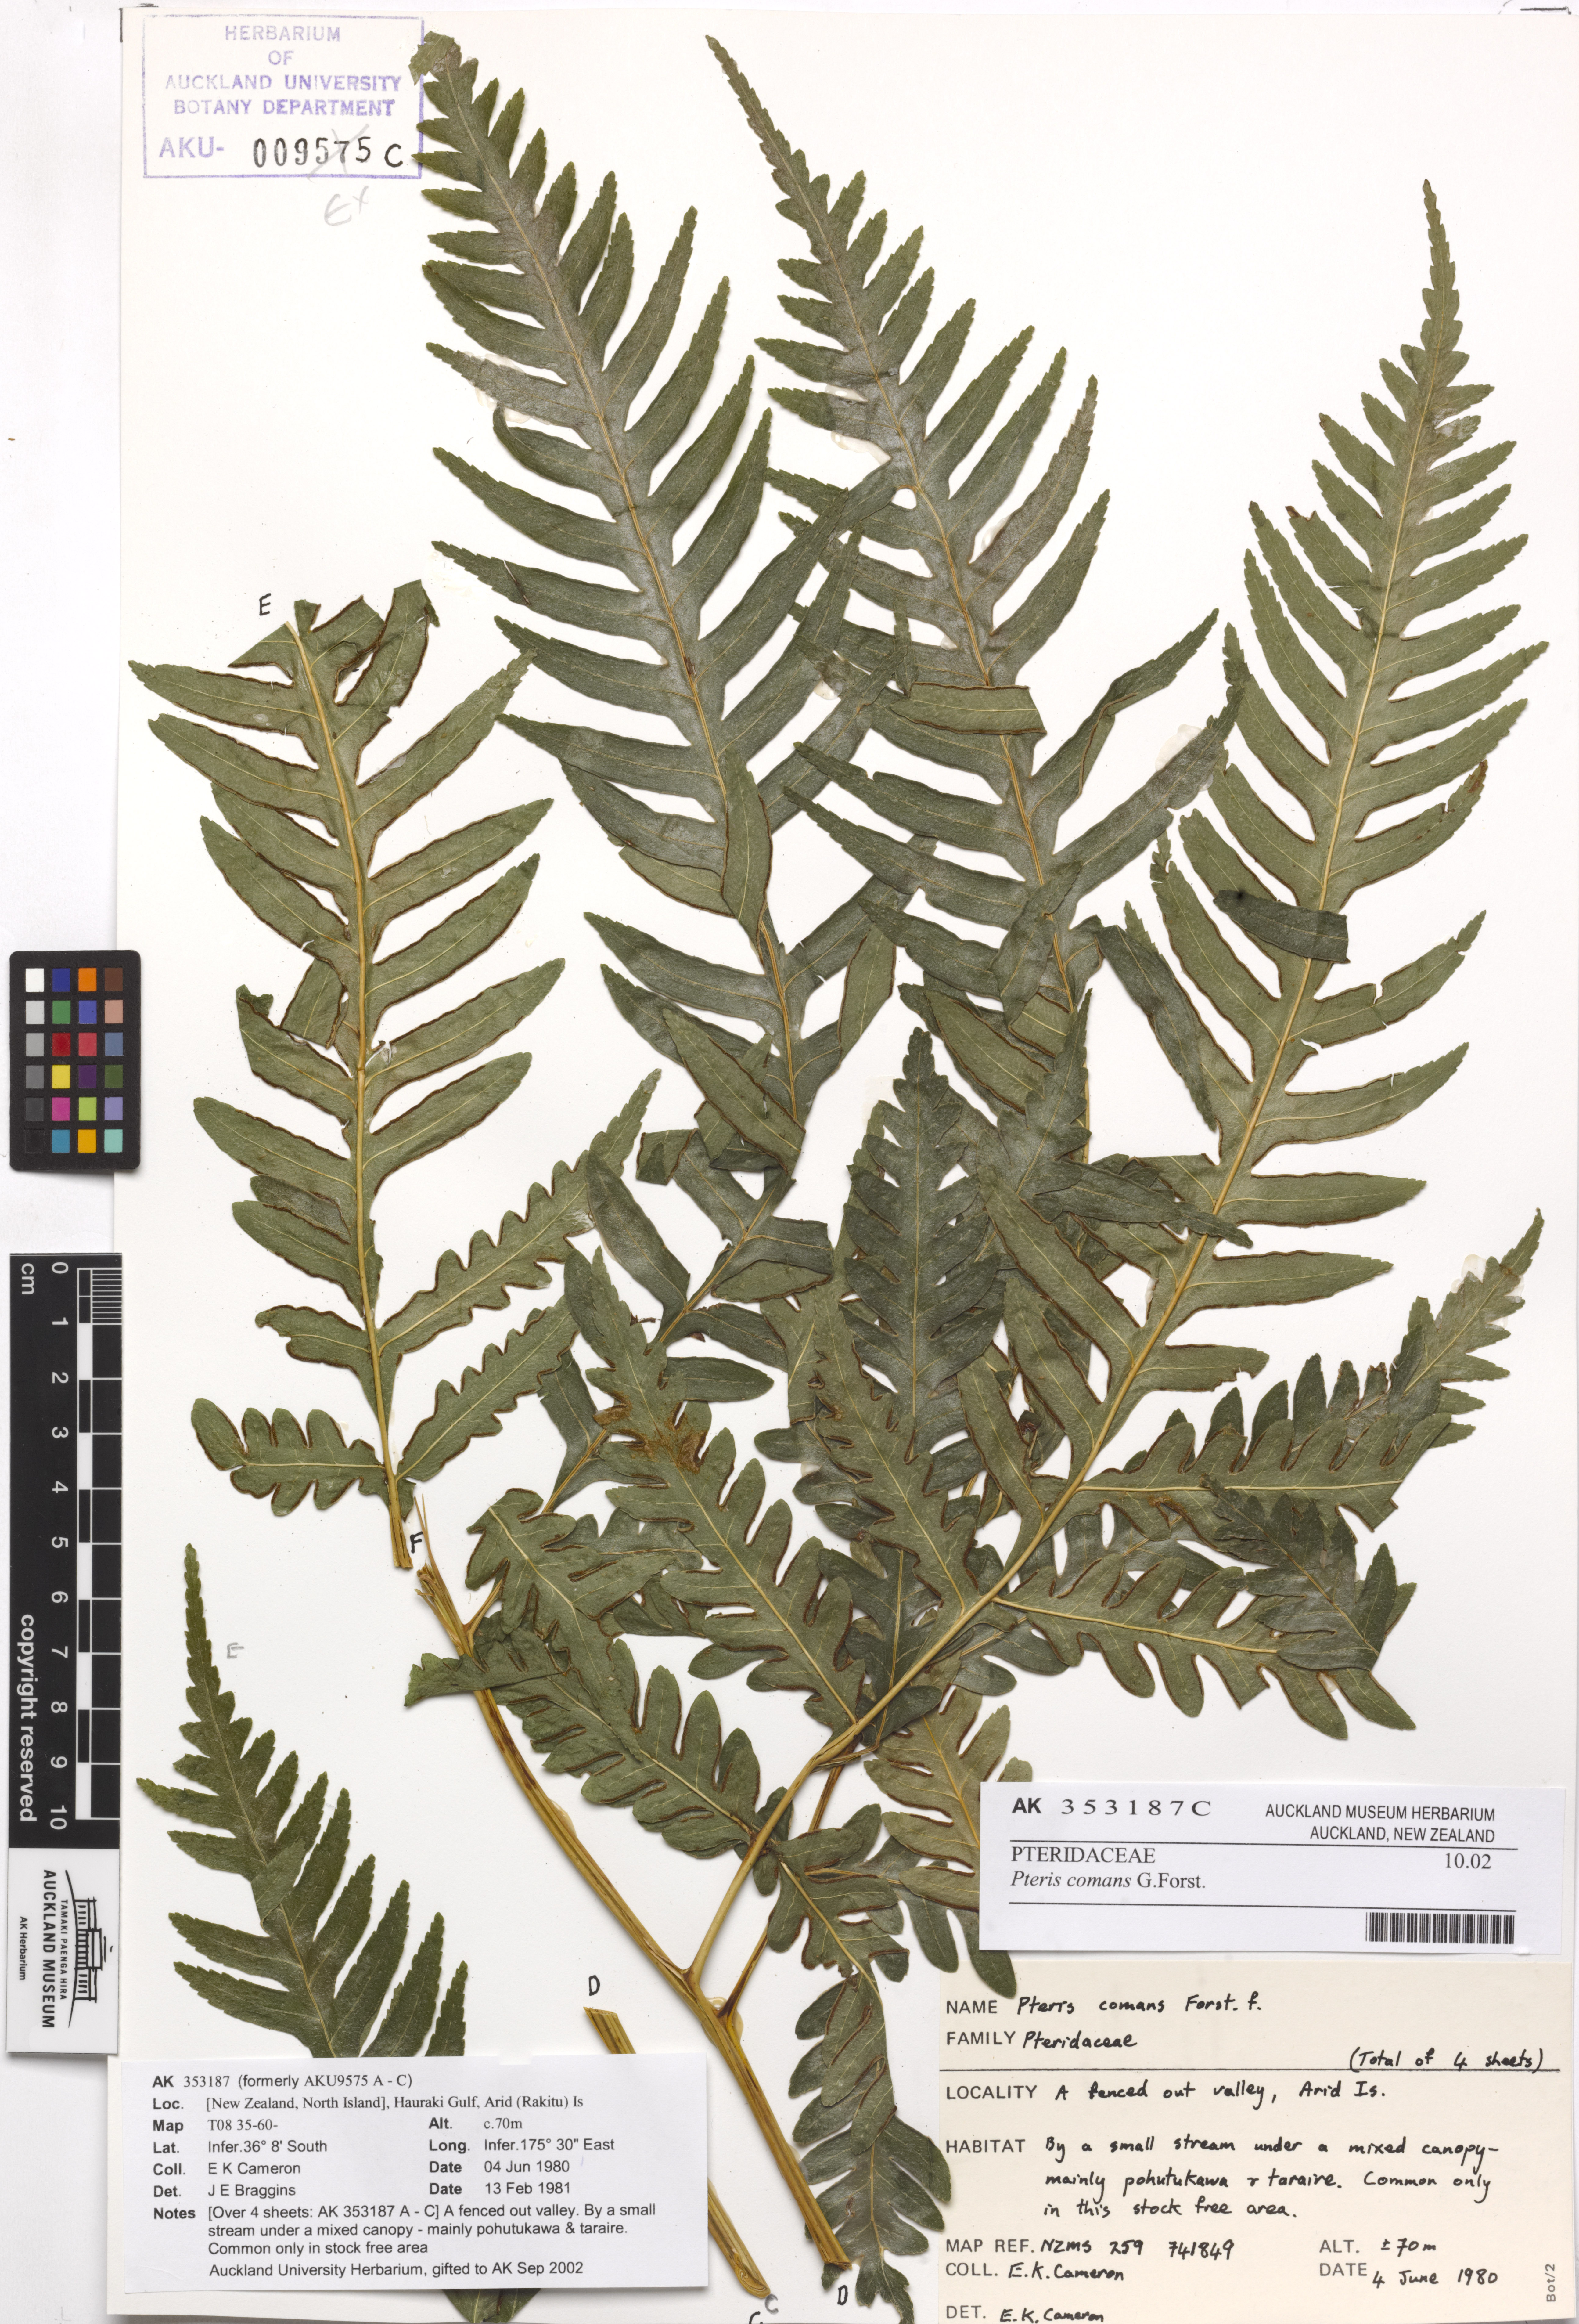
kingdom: Plantae
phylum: Tracheophyta
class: Polypodiopsida
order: Polypodiales
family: Pteridaceae
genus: Pteris
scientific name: Pteris comans
